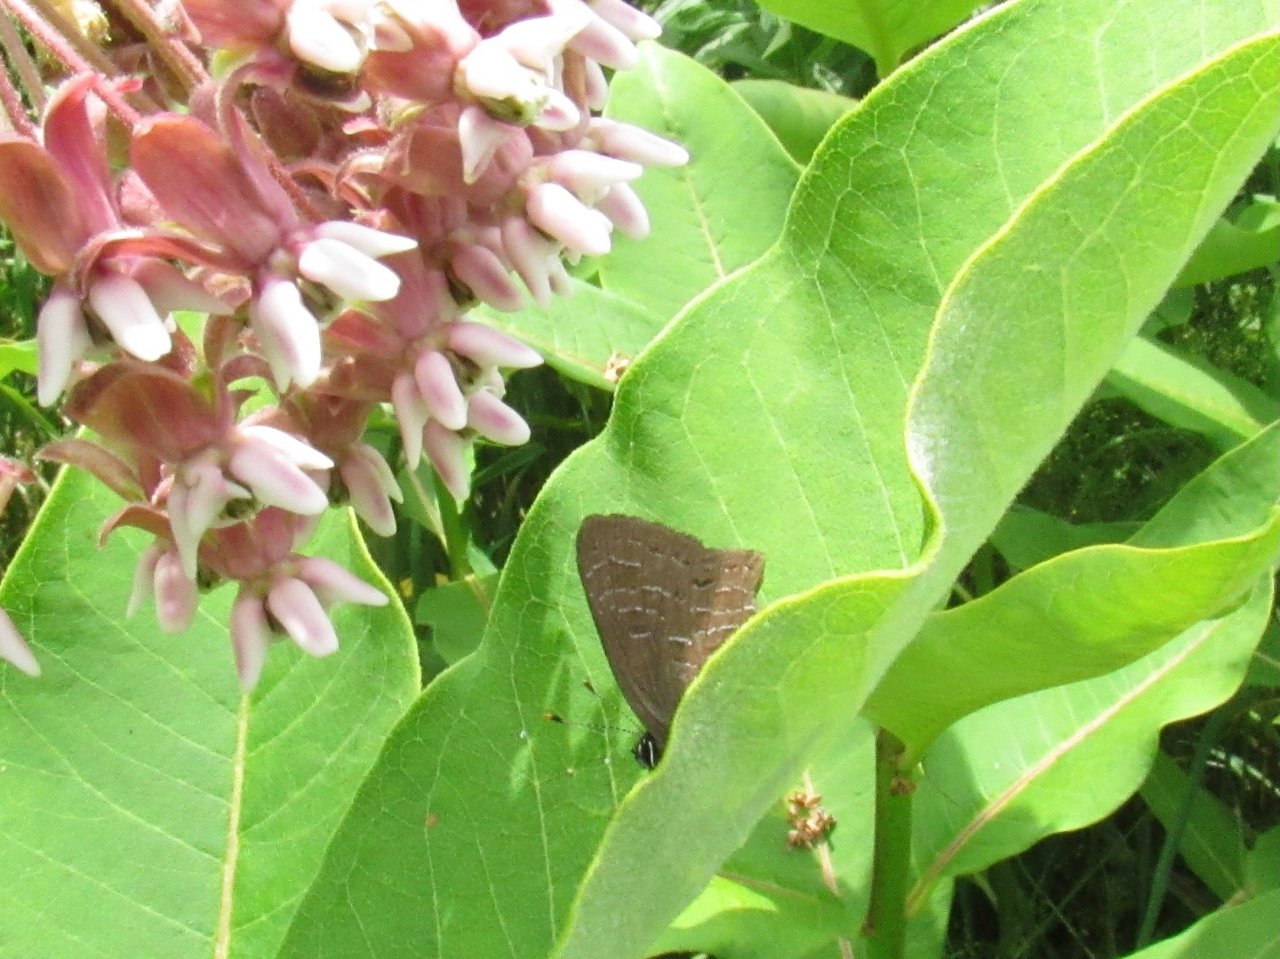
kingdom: Animalia
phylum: Arthropoda
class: Insecta
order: Lepidoptera
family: Lycaenidae
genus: Satyrium
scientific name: Satyrium liparops
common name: Striped Hairstreak
